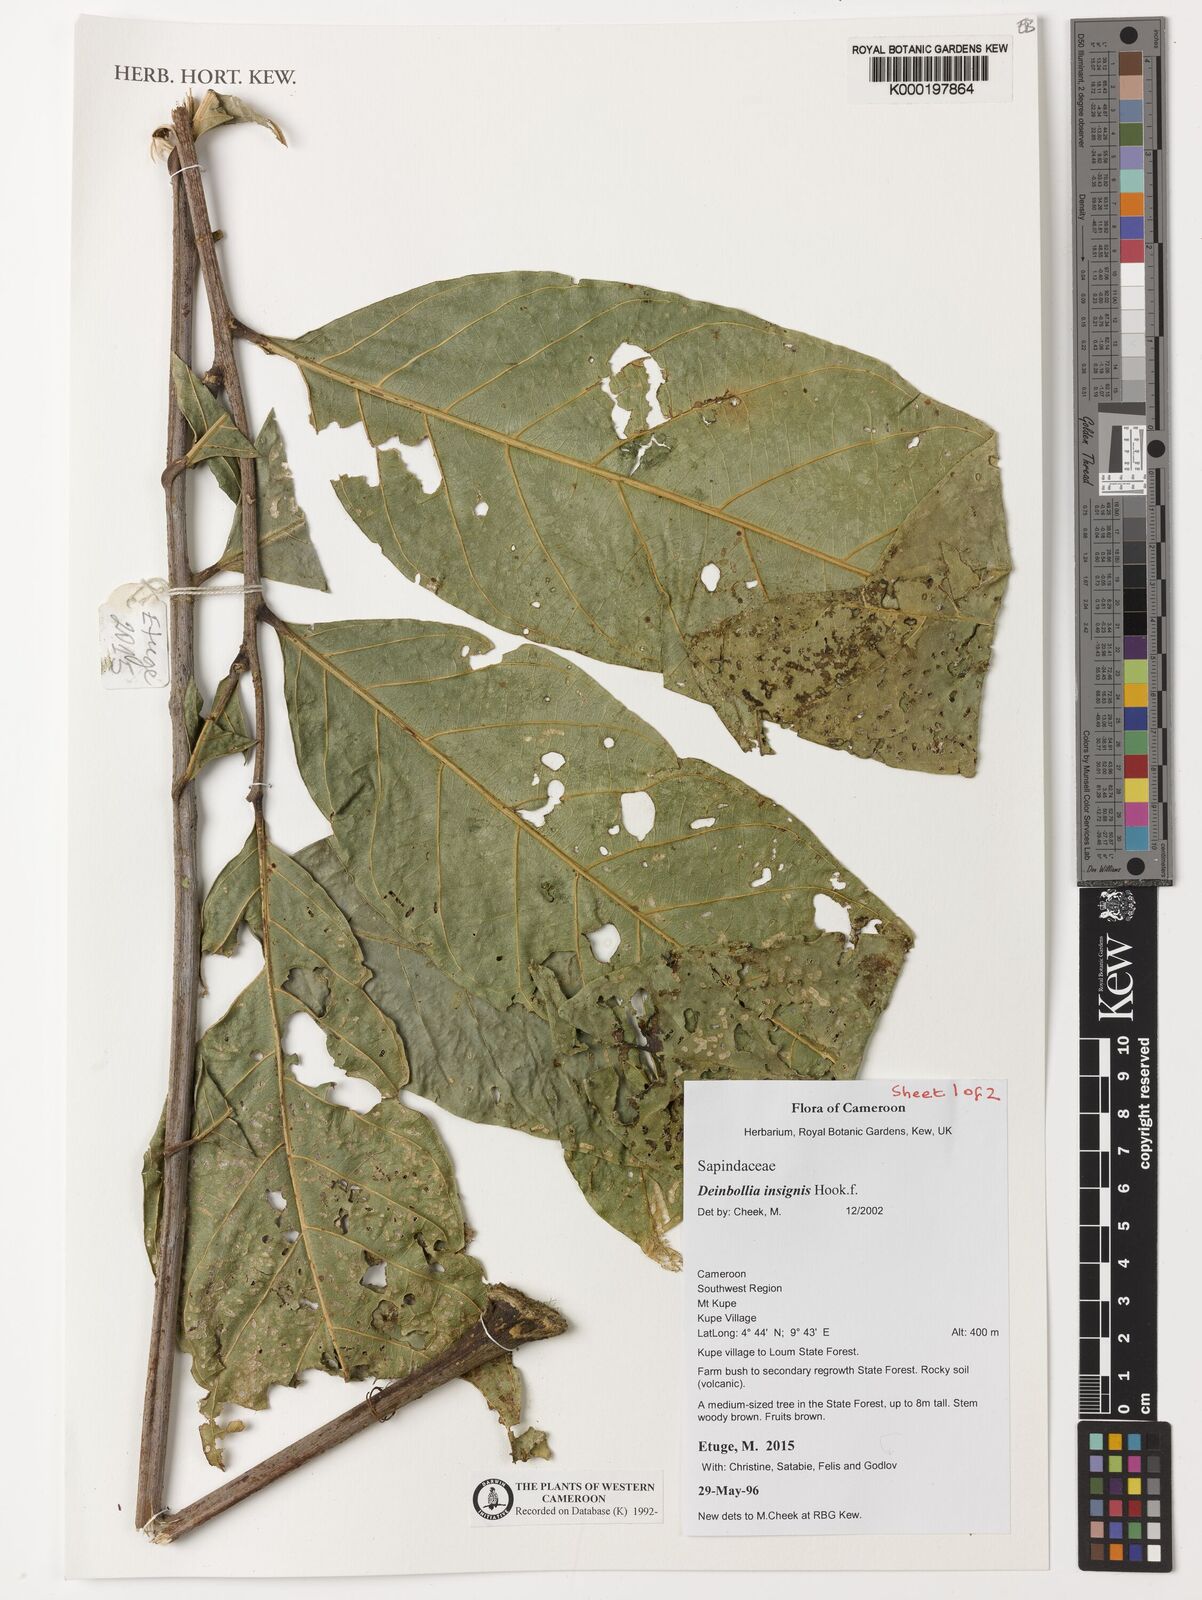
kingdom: Plantae
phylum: Tracheophyta
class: Magnoliopsida
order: Sapindales
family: Sapindaceae
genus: Deinbollia
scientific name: Deinbollia insignis
